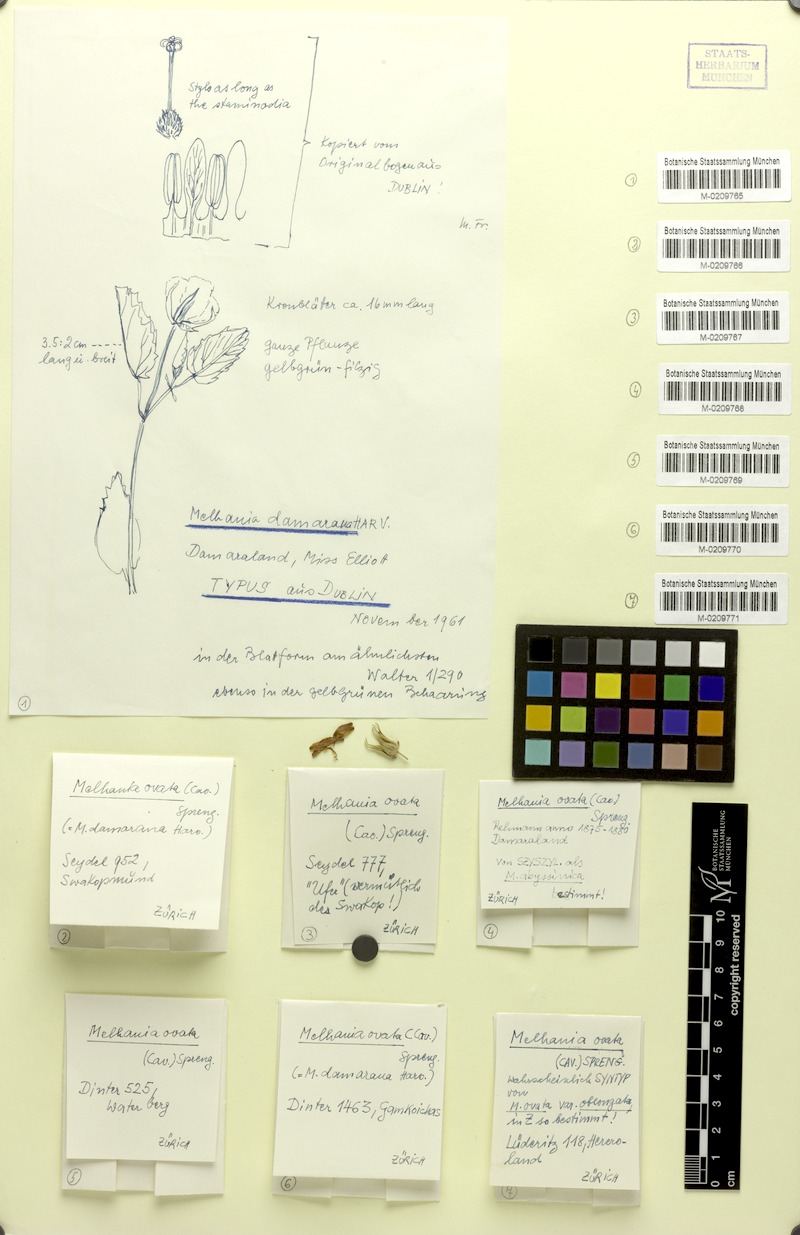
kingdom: Plantae
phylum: Tracheophyta
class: Magnoliopsida
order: Malvales
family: Malvaceae
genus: Melhania
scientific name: Melhania ovata
